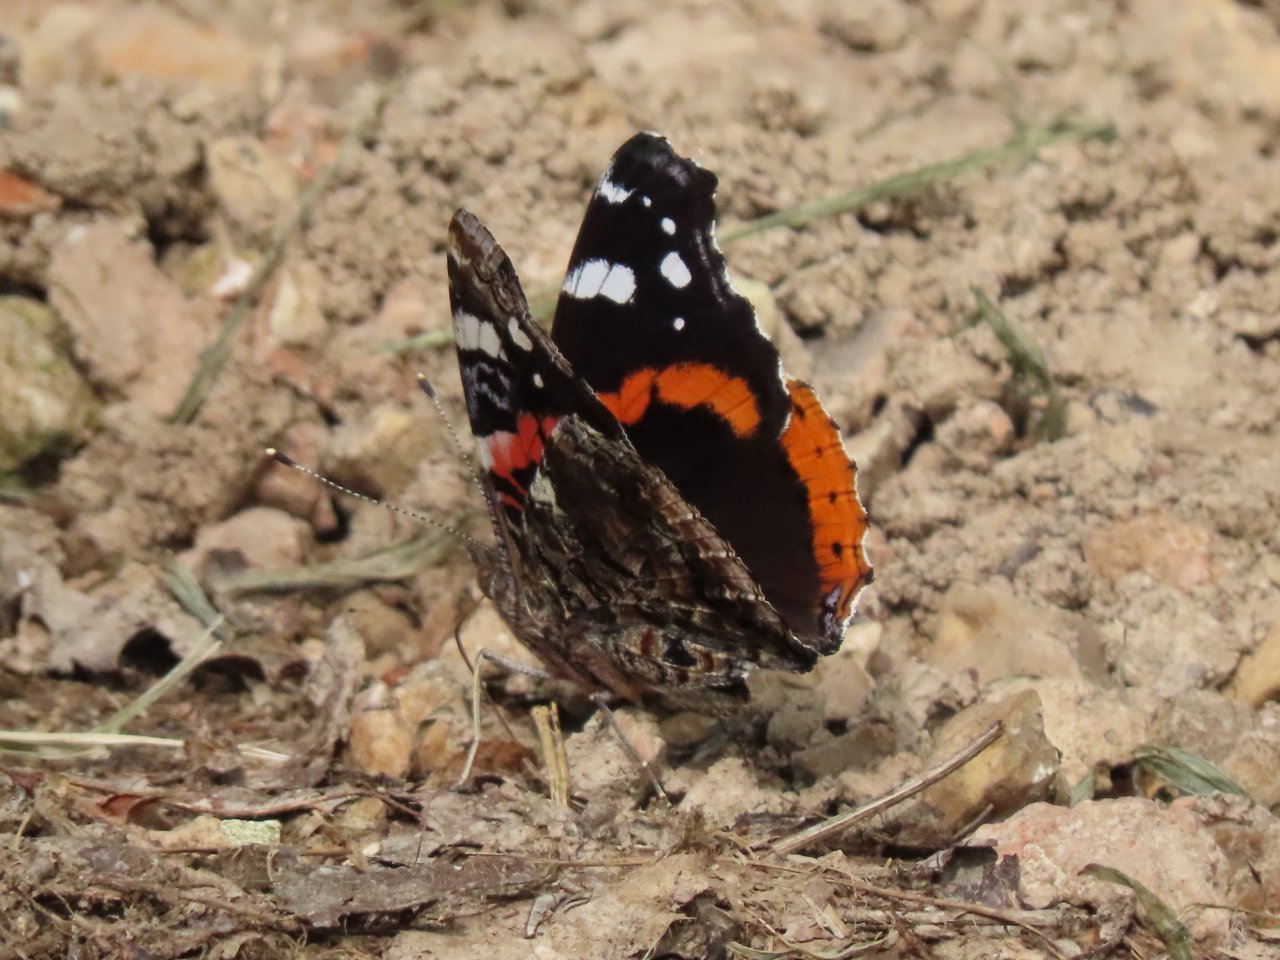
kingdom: Animalia
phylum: Arthropoda
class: Insecta
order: Lepidoptera
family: Nymphalidae
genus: Vanessa
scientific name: Vanessa atalanta
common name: Red Admiral
